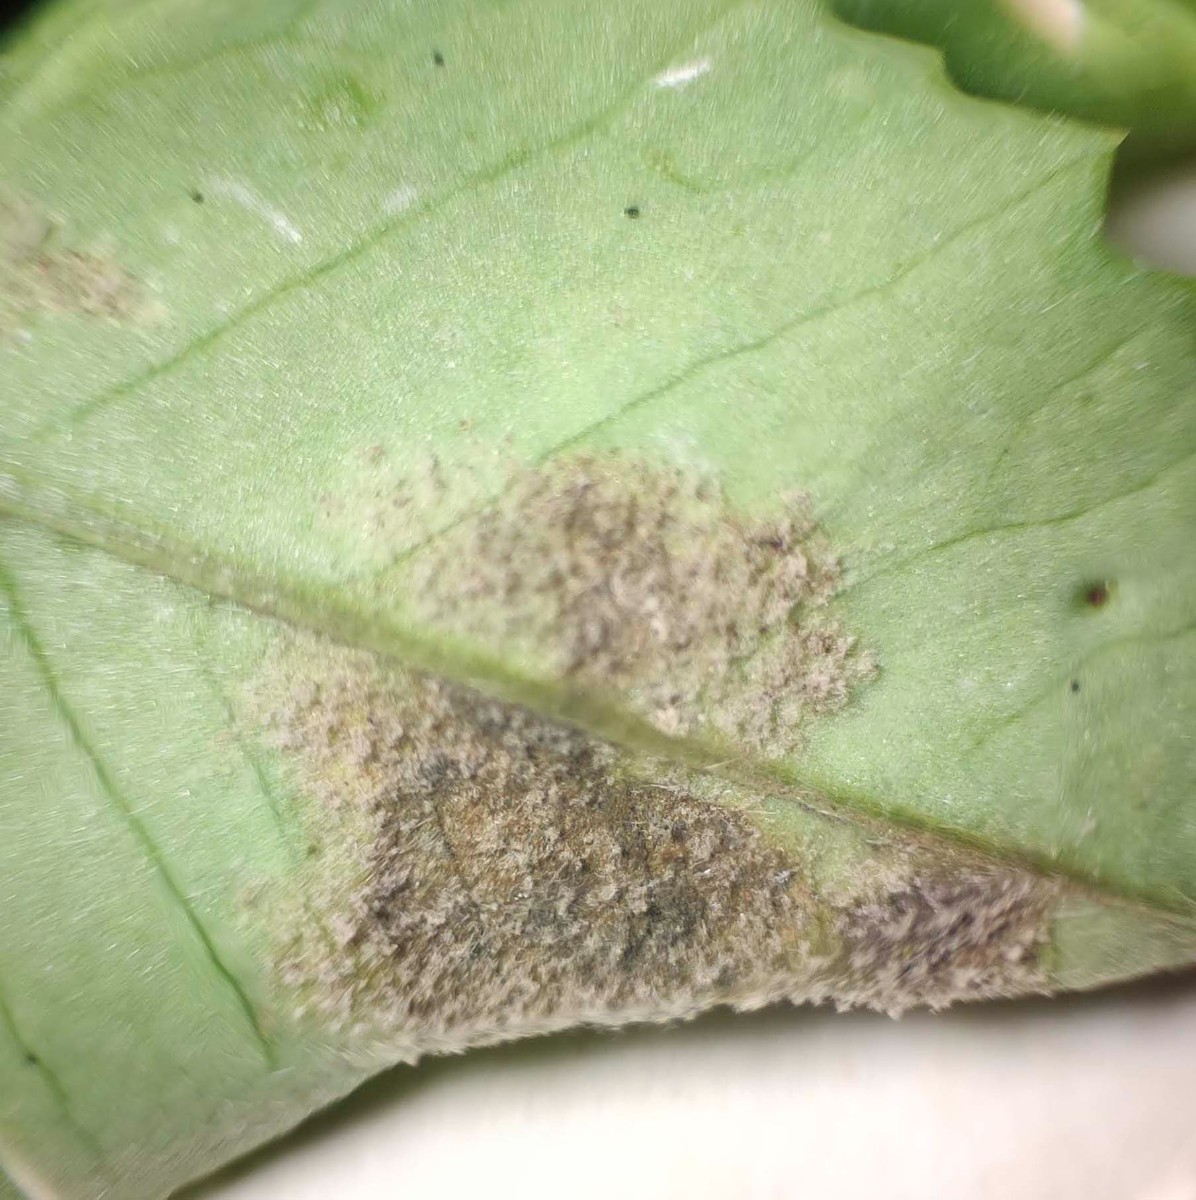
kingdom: Chromista
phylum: Oomycota
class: Peronosporea
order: Peronosporales
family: Peronosporaceae
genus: Peronospora
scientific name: Peronospora meliloti
